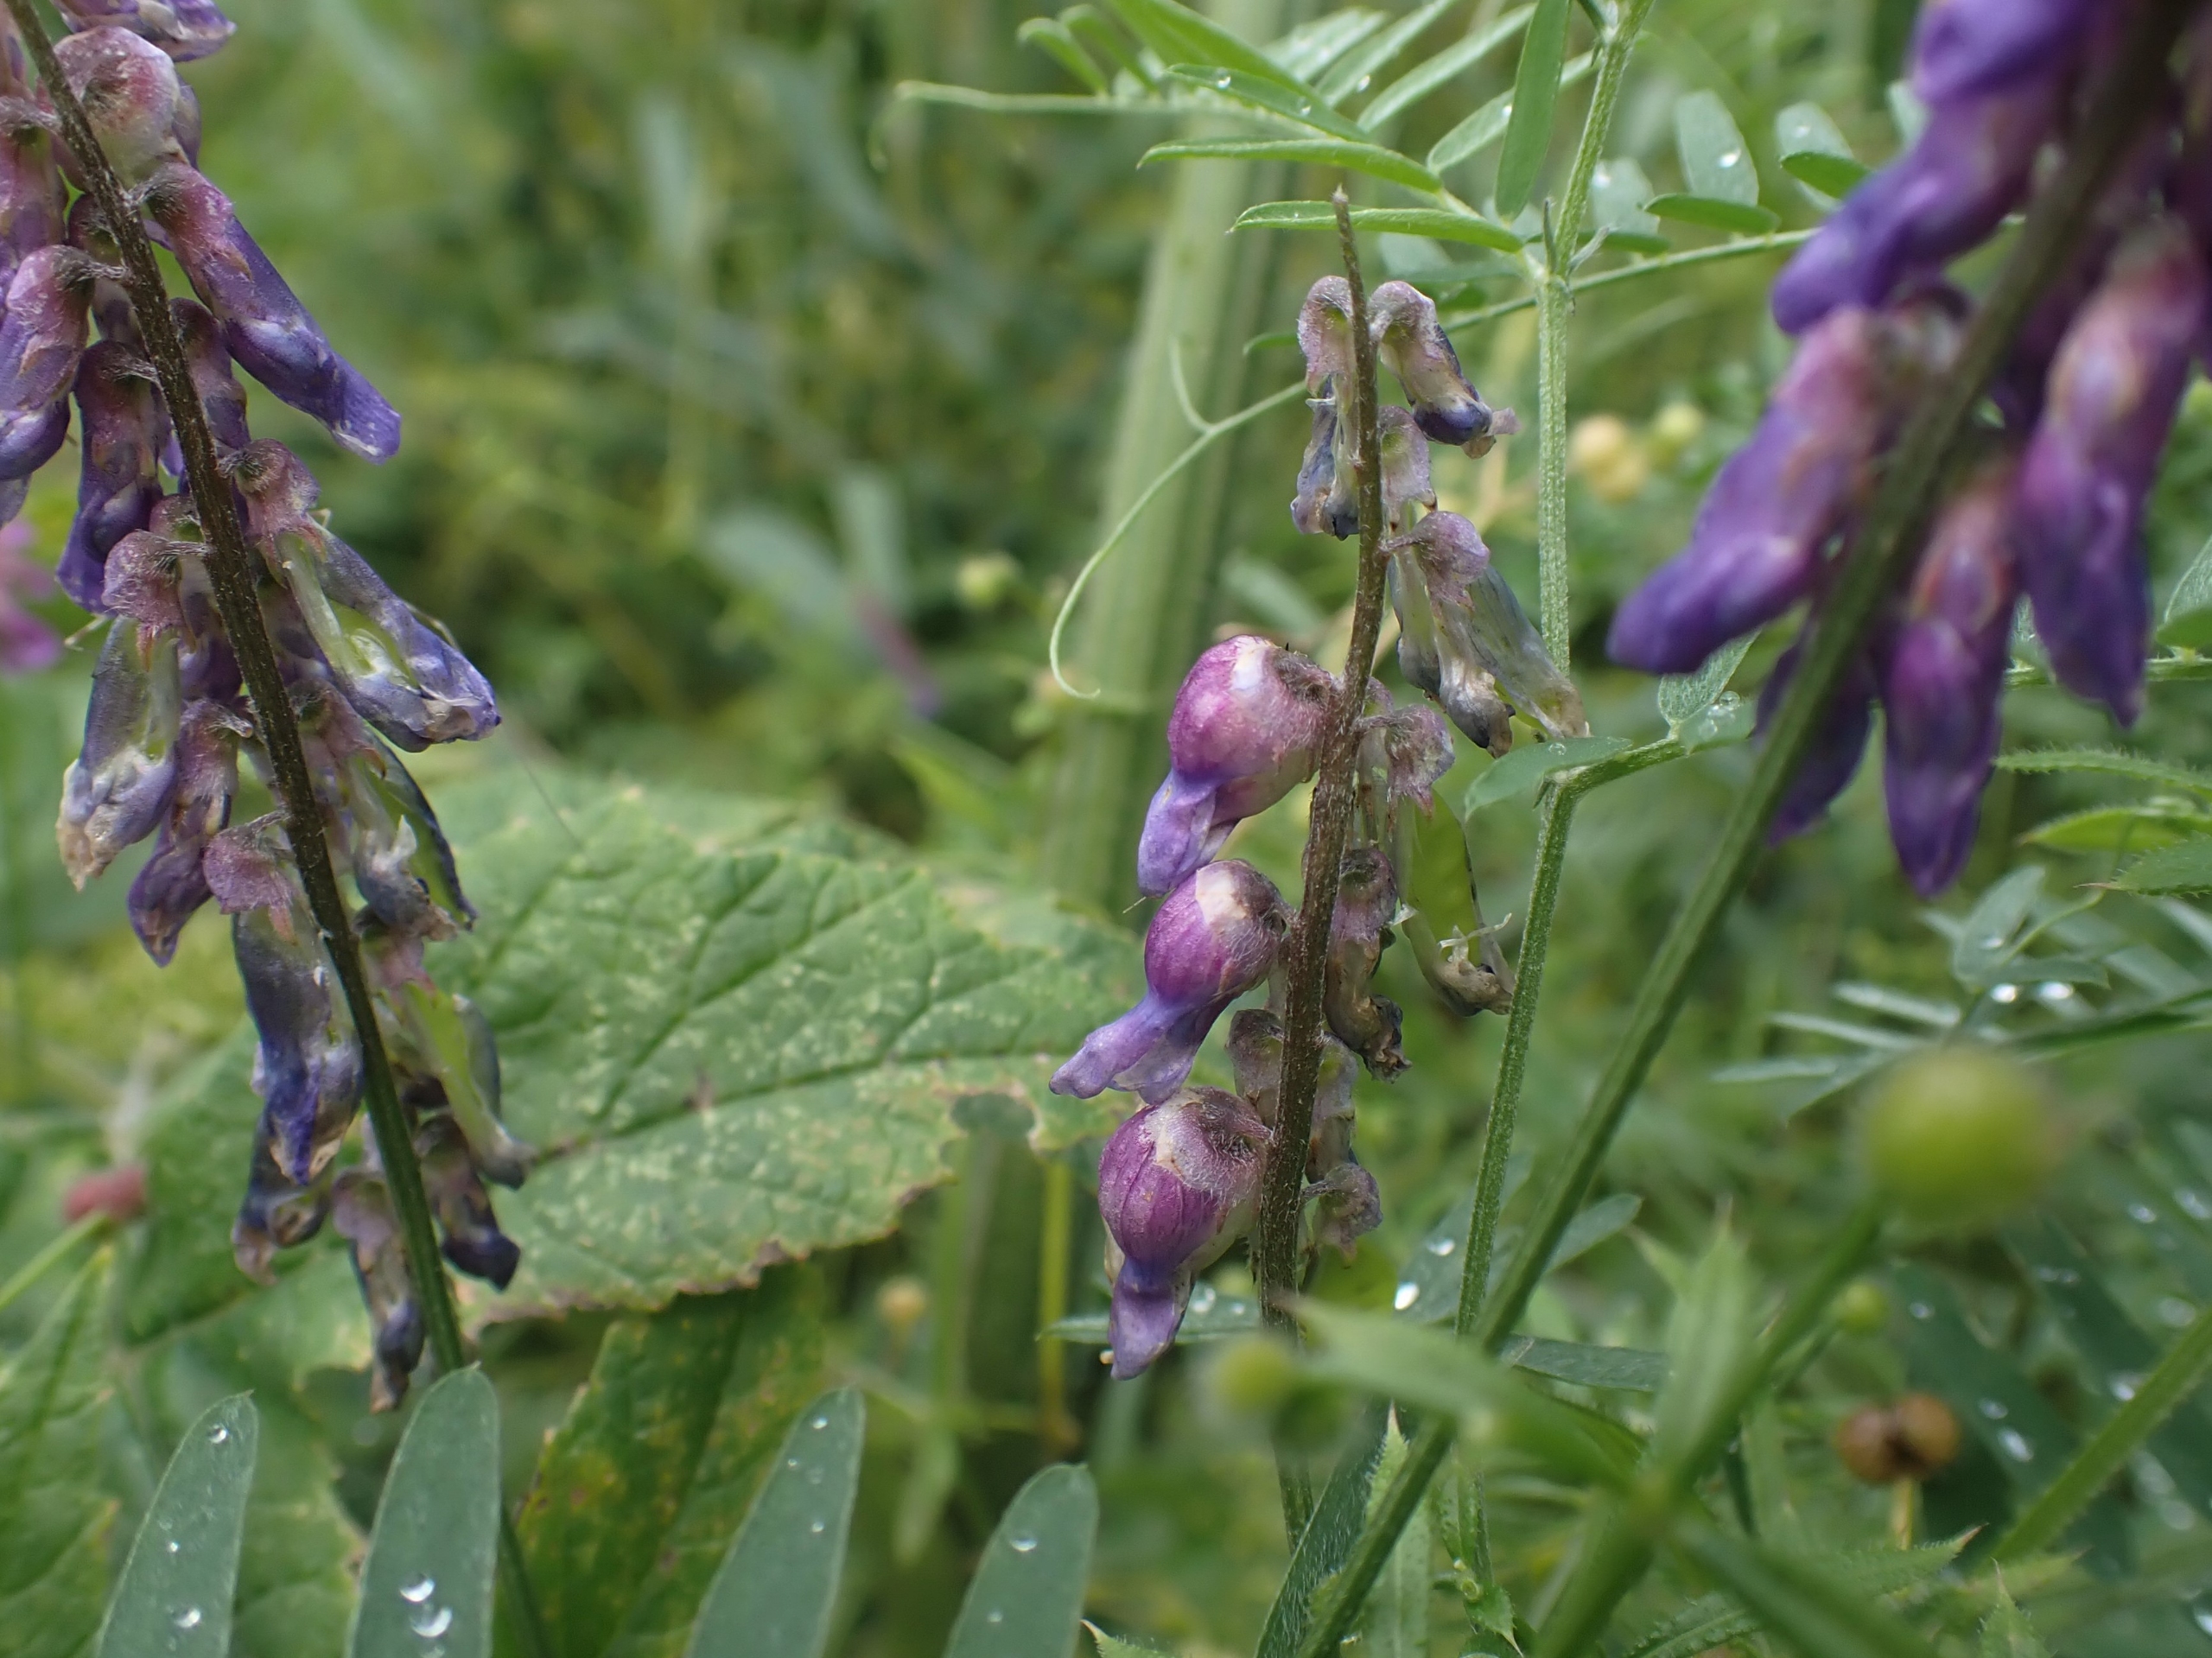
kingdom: Animalia
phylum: Arthropoda
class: Insecta
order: Diptera
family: Cecidomyiidae
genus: Contarinia
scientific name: Contarinia craccae
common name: Vikkeblomstgalmyg
